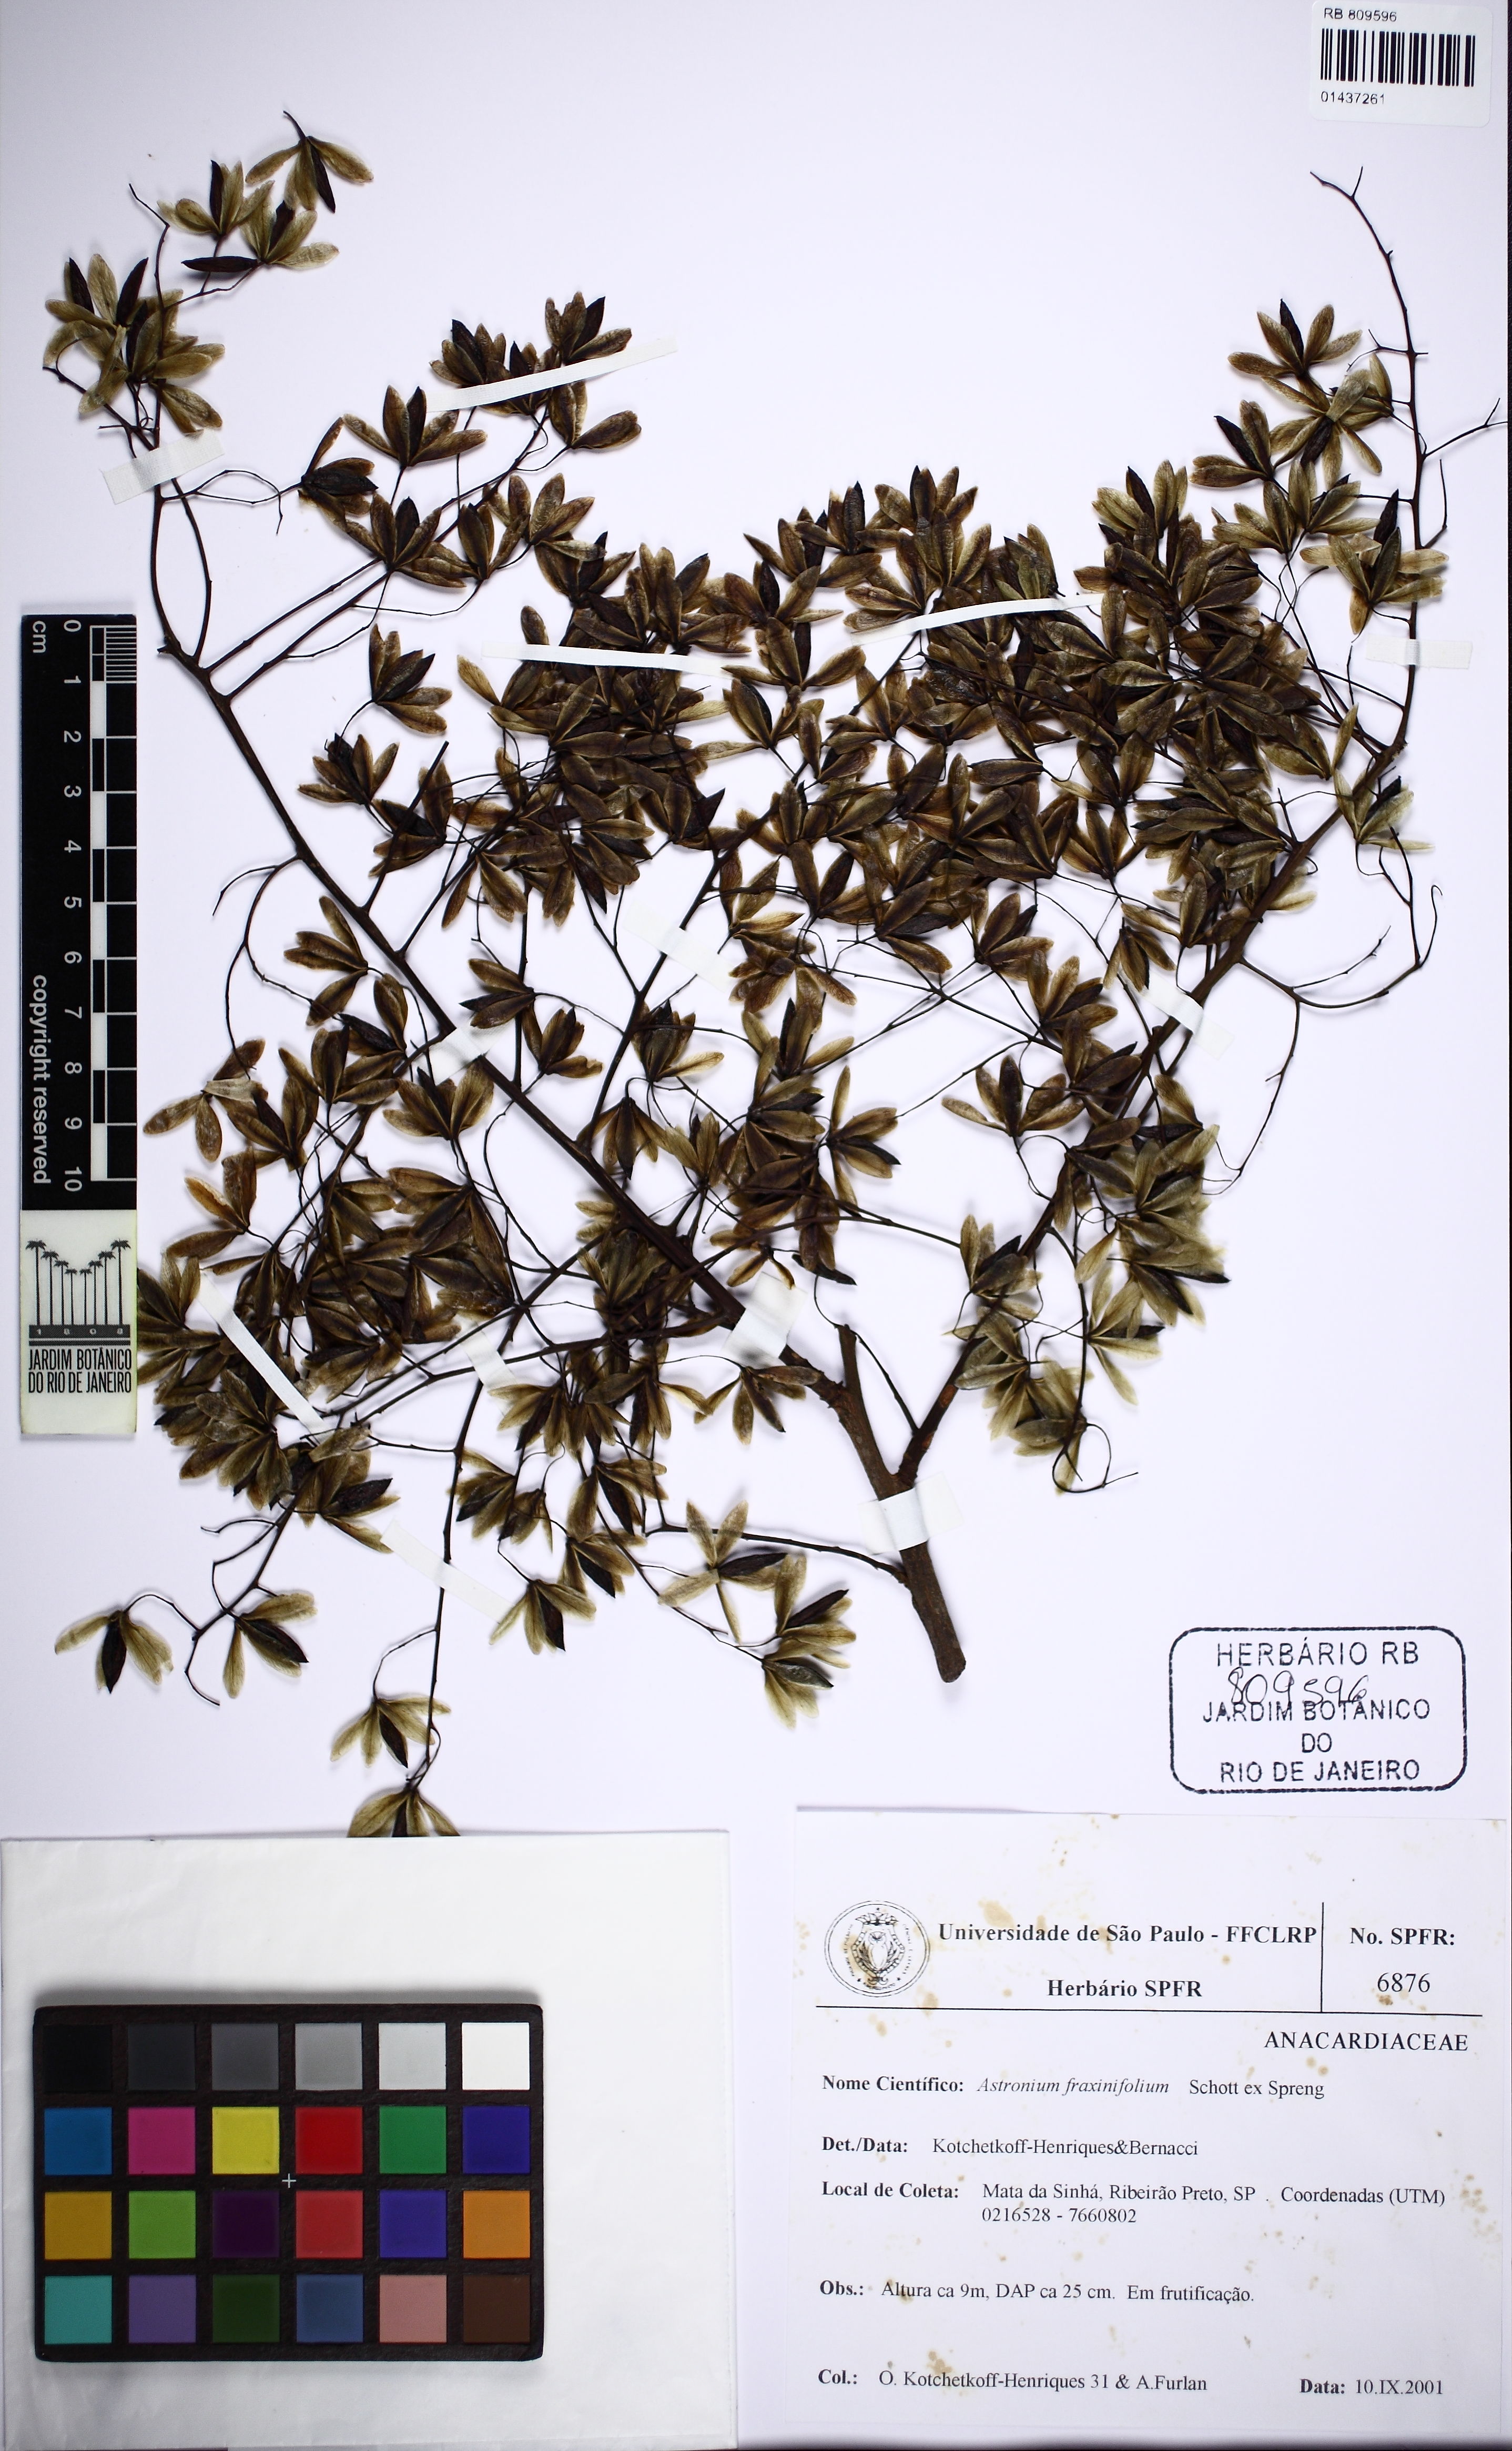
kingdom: Plantae
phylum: Tracheophyta
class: Magnoliopsida
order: Sapindales
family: Anacardiaceae
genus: Astronium
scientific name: Astronium fraxinifolium
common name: Tigerwood
